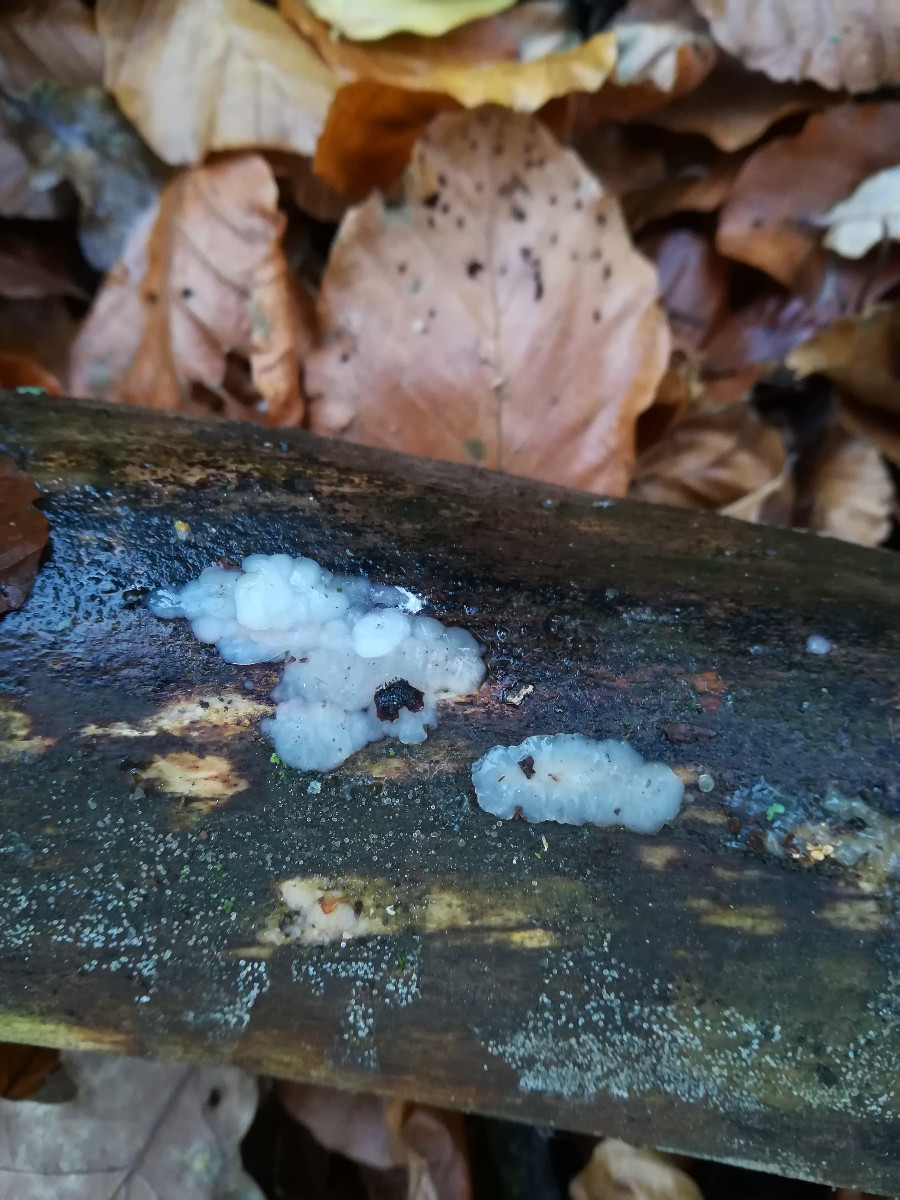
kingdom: Fungi
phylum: Basidiomycota
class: Agaricomycetes
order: Auriculariales
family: Hyaloriaceae
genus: Myxarium
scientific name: Myxarium nucleatum
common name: klar bævretop
